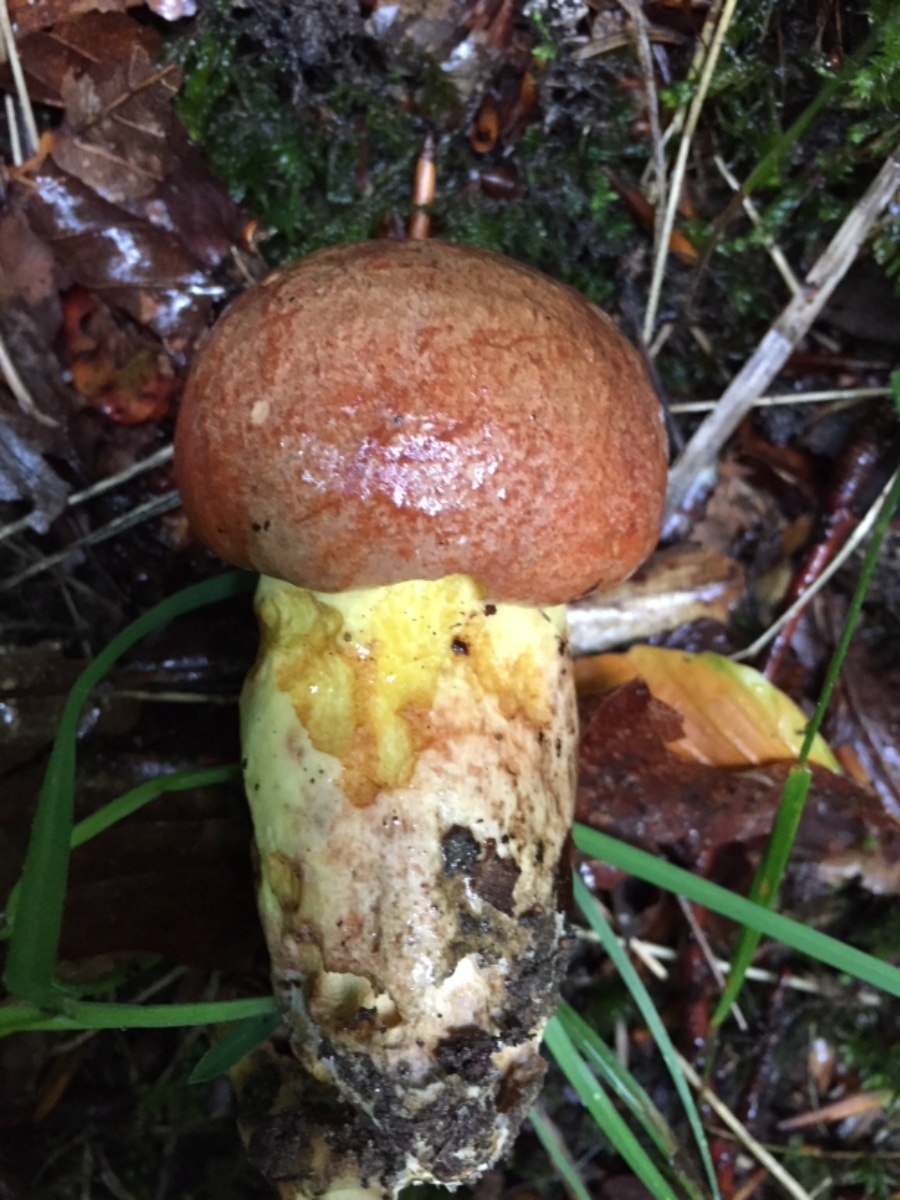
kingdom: Fungi
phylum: Basidiomycota
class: Agaricomycetes
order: Boletales
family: Boletaceae
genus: Butyriboletus
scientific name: Butyriboletus appendiculatus
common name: tenstokket rørhat
